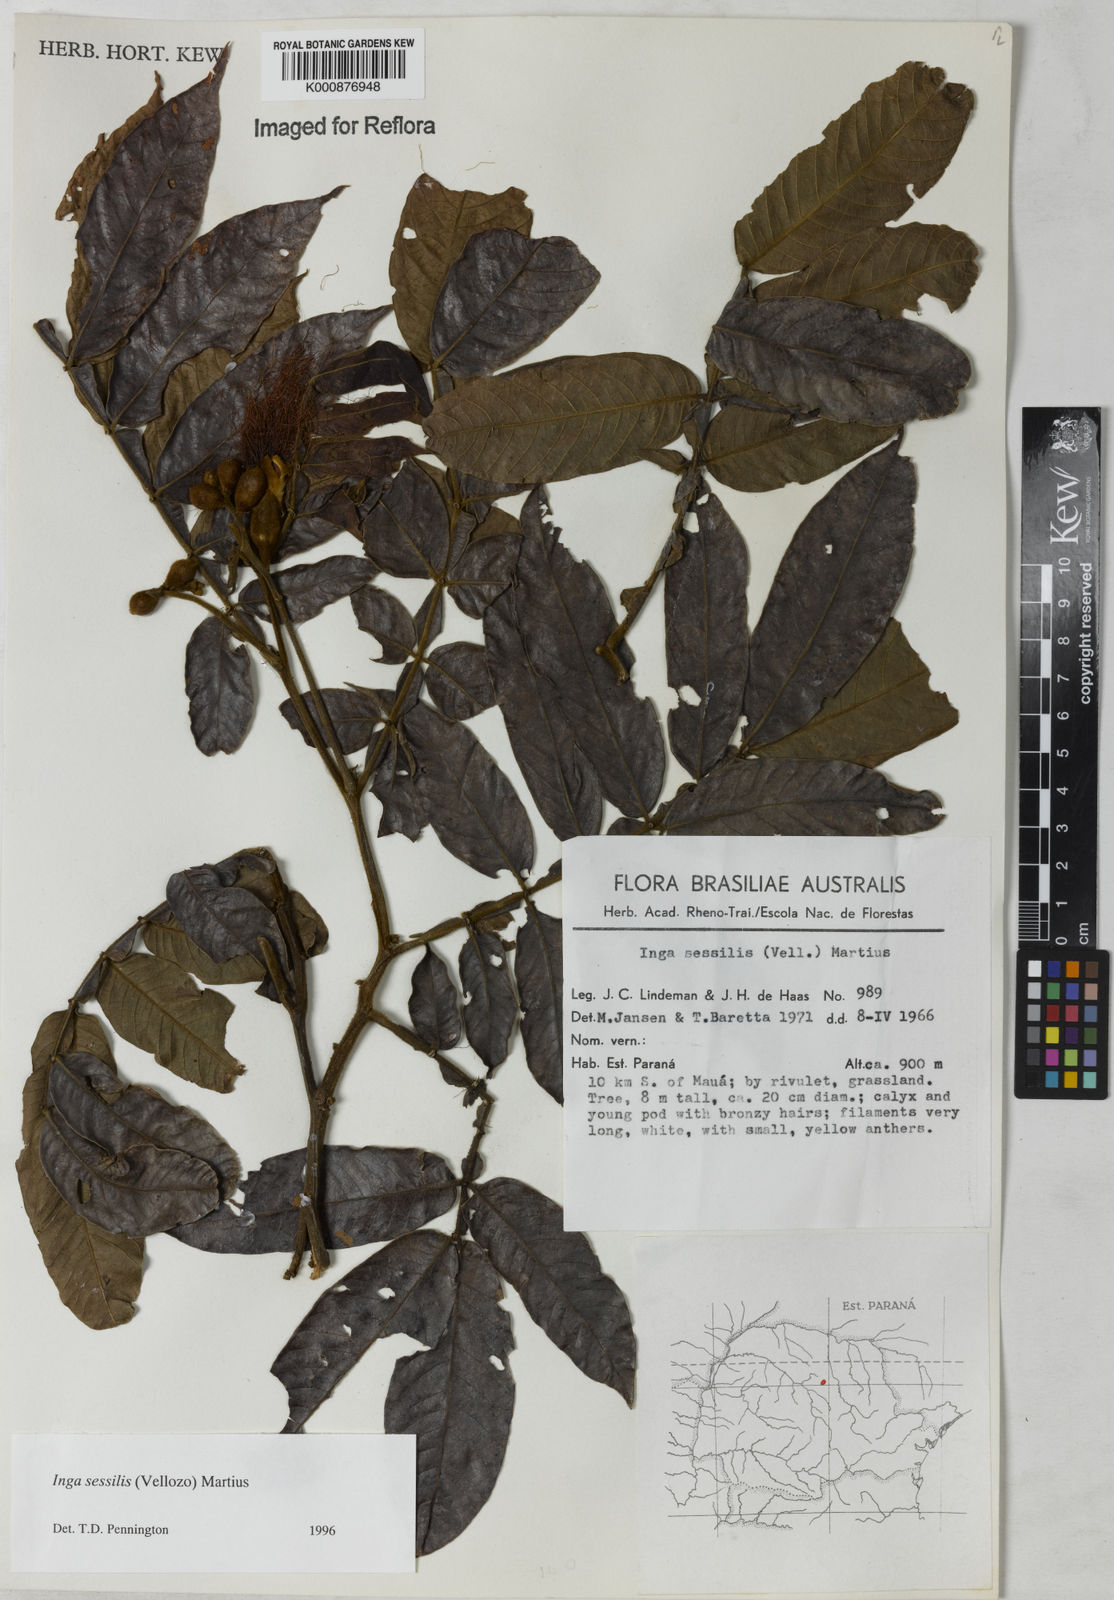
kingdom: Plantae
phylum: Tracheophyta
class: Magnoliopsida
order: Fabales
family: Fabaceae
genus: Inga
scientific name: Inga sessilis
